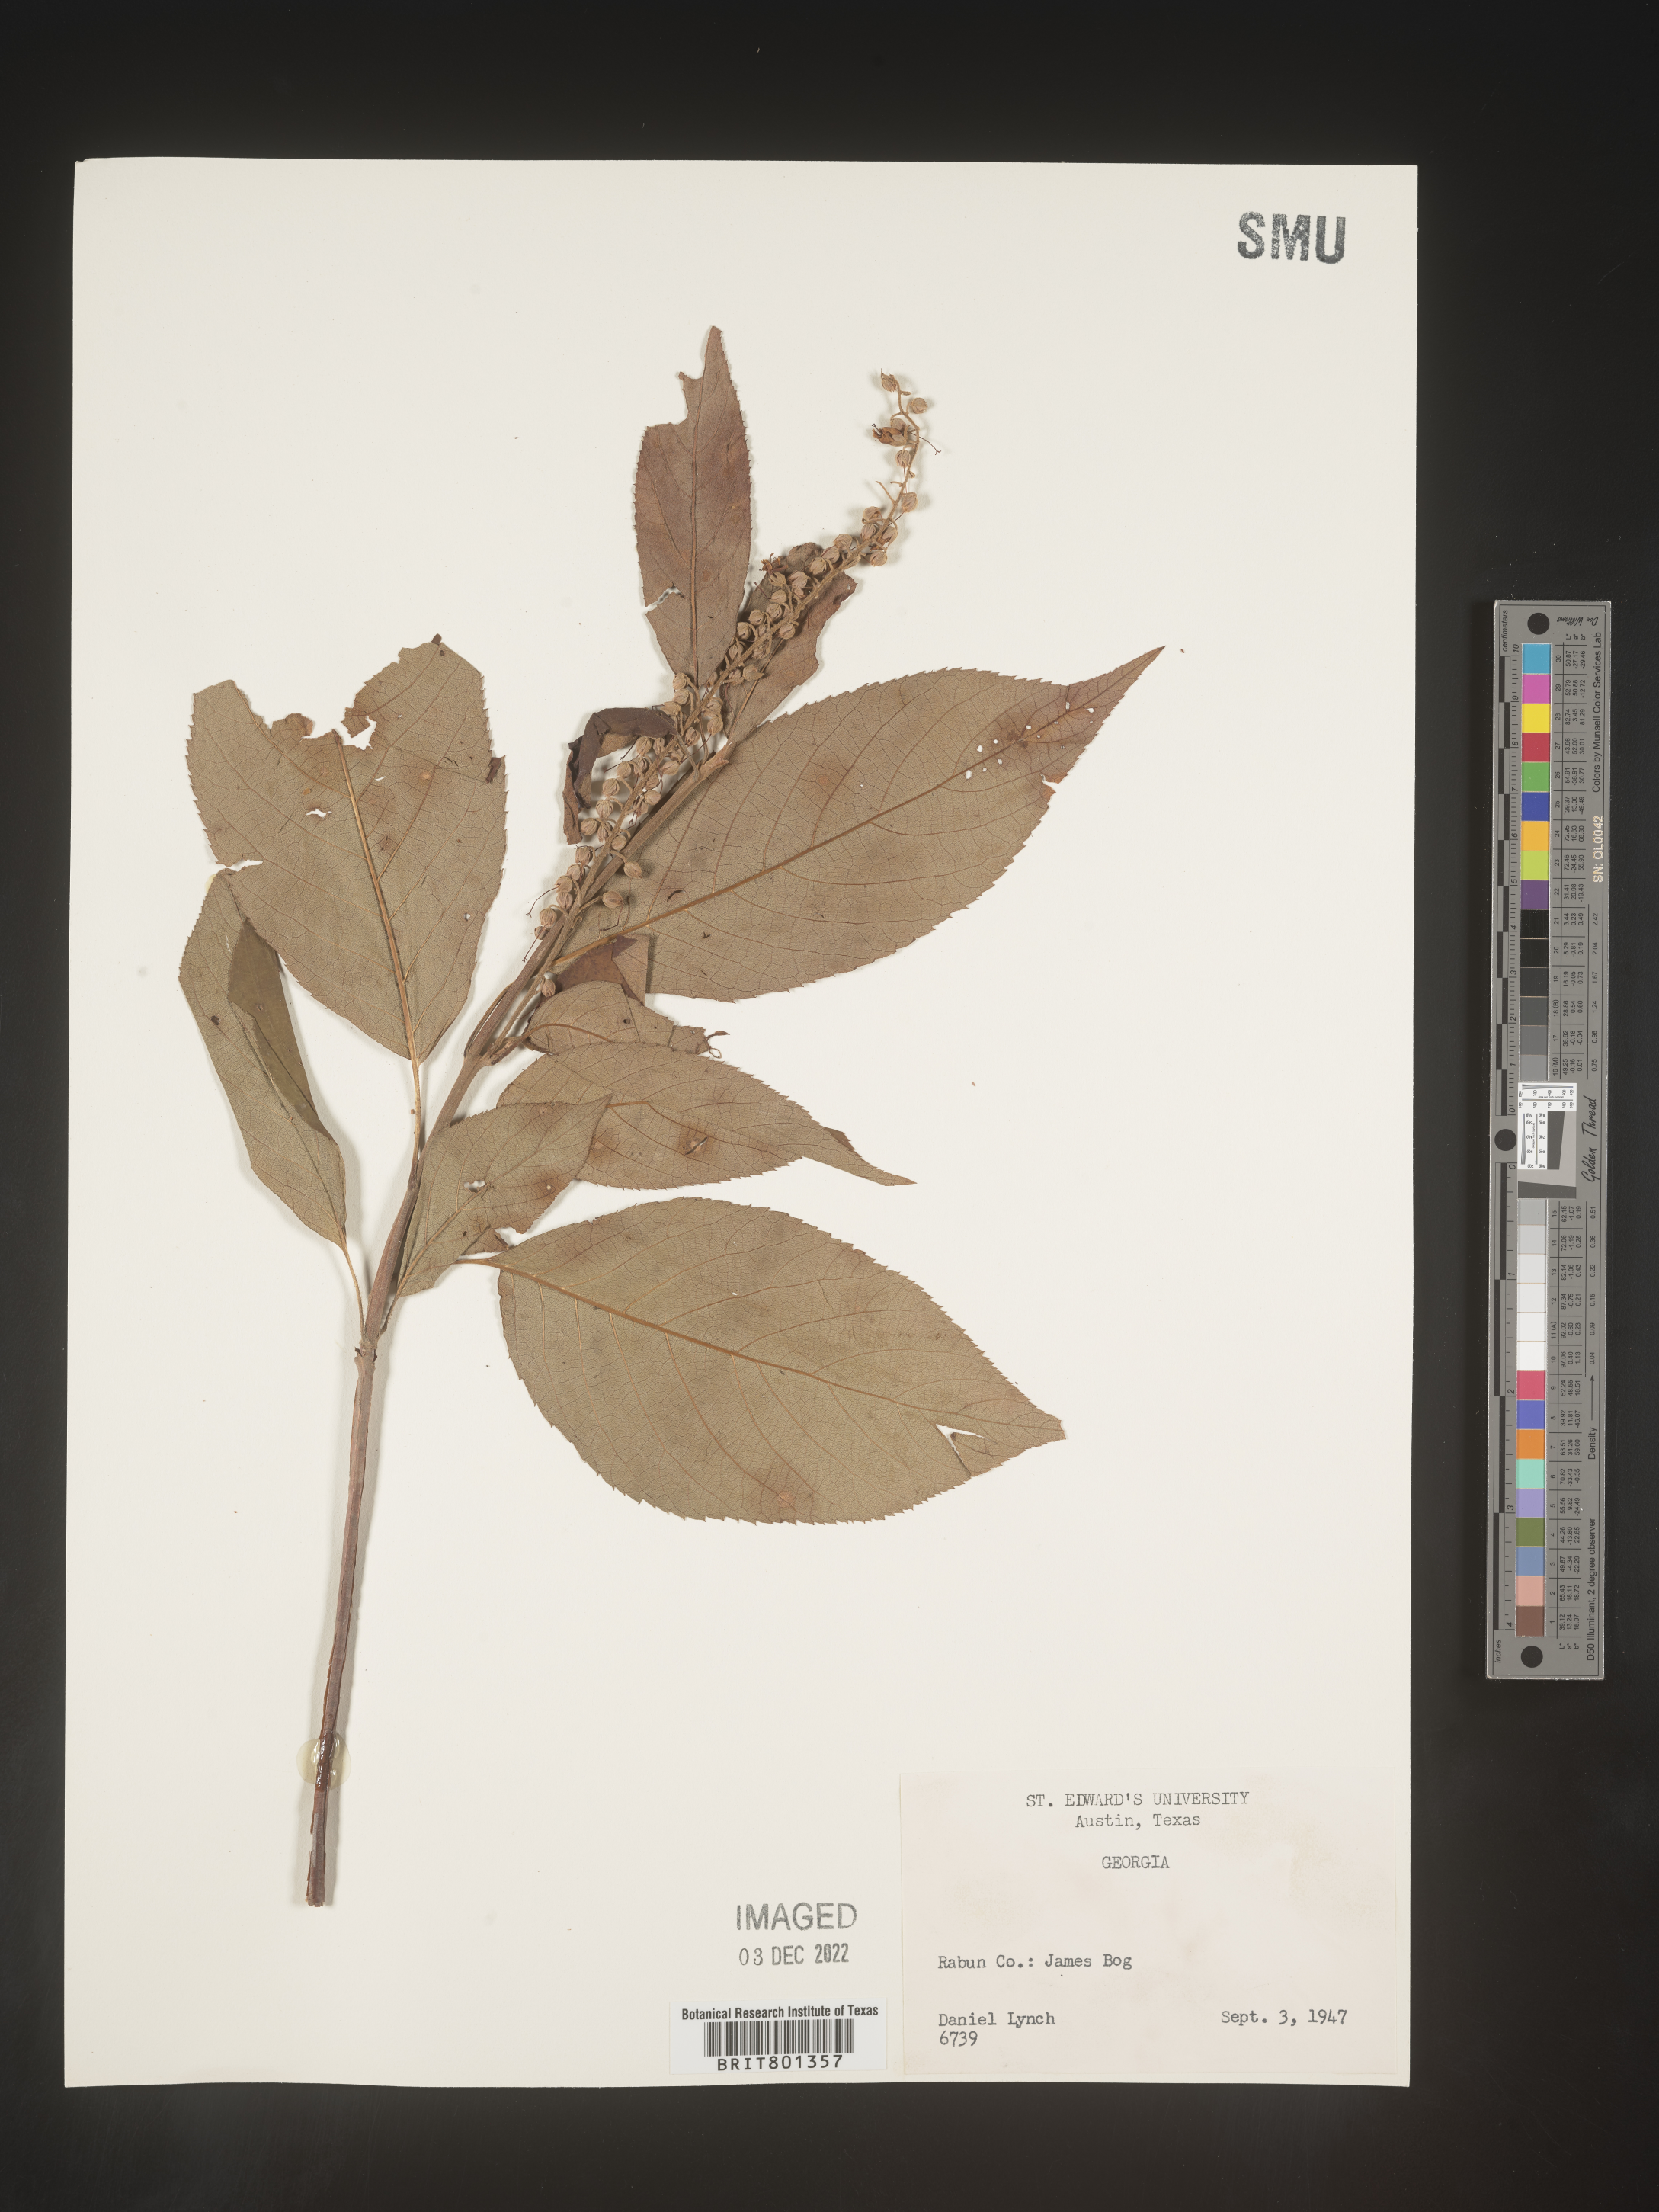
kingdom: Plantae
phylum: Tracheophyta
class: Magnoliopsida
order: Ericales
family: Clethraceae
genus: Clethra
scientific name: Clethra alnifolia
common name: Sweet pepperbush
